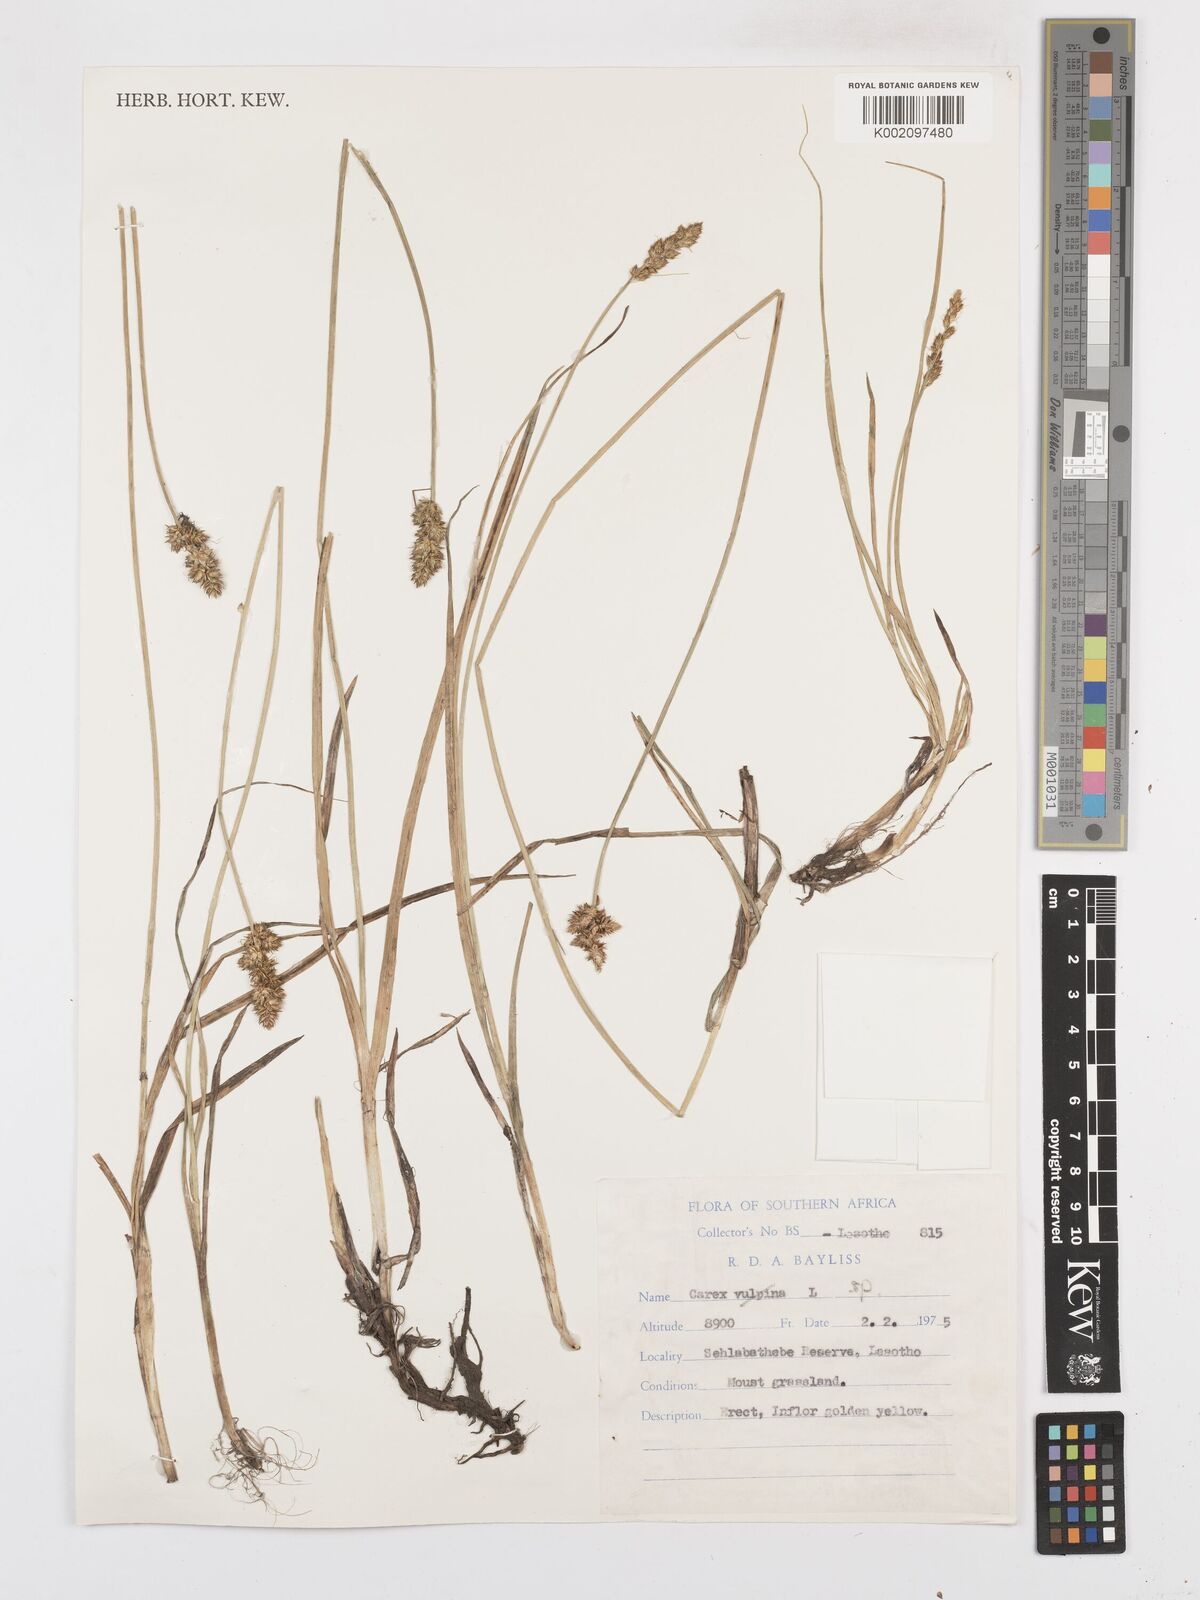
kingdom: Plantae
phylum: Tracheophyta
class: Liliopsida
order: Poales
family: Cyperaceae
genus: Carex
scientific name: Carex glomerata
